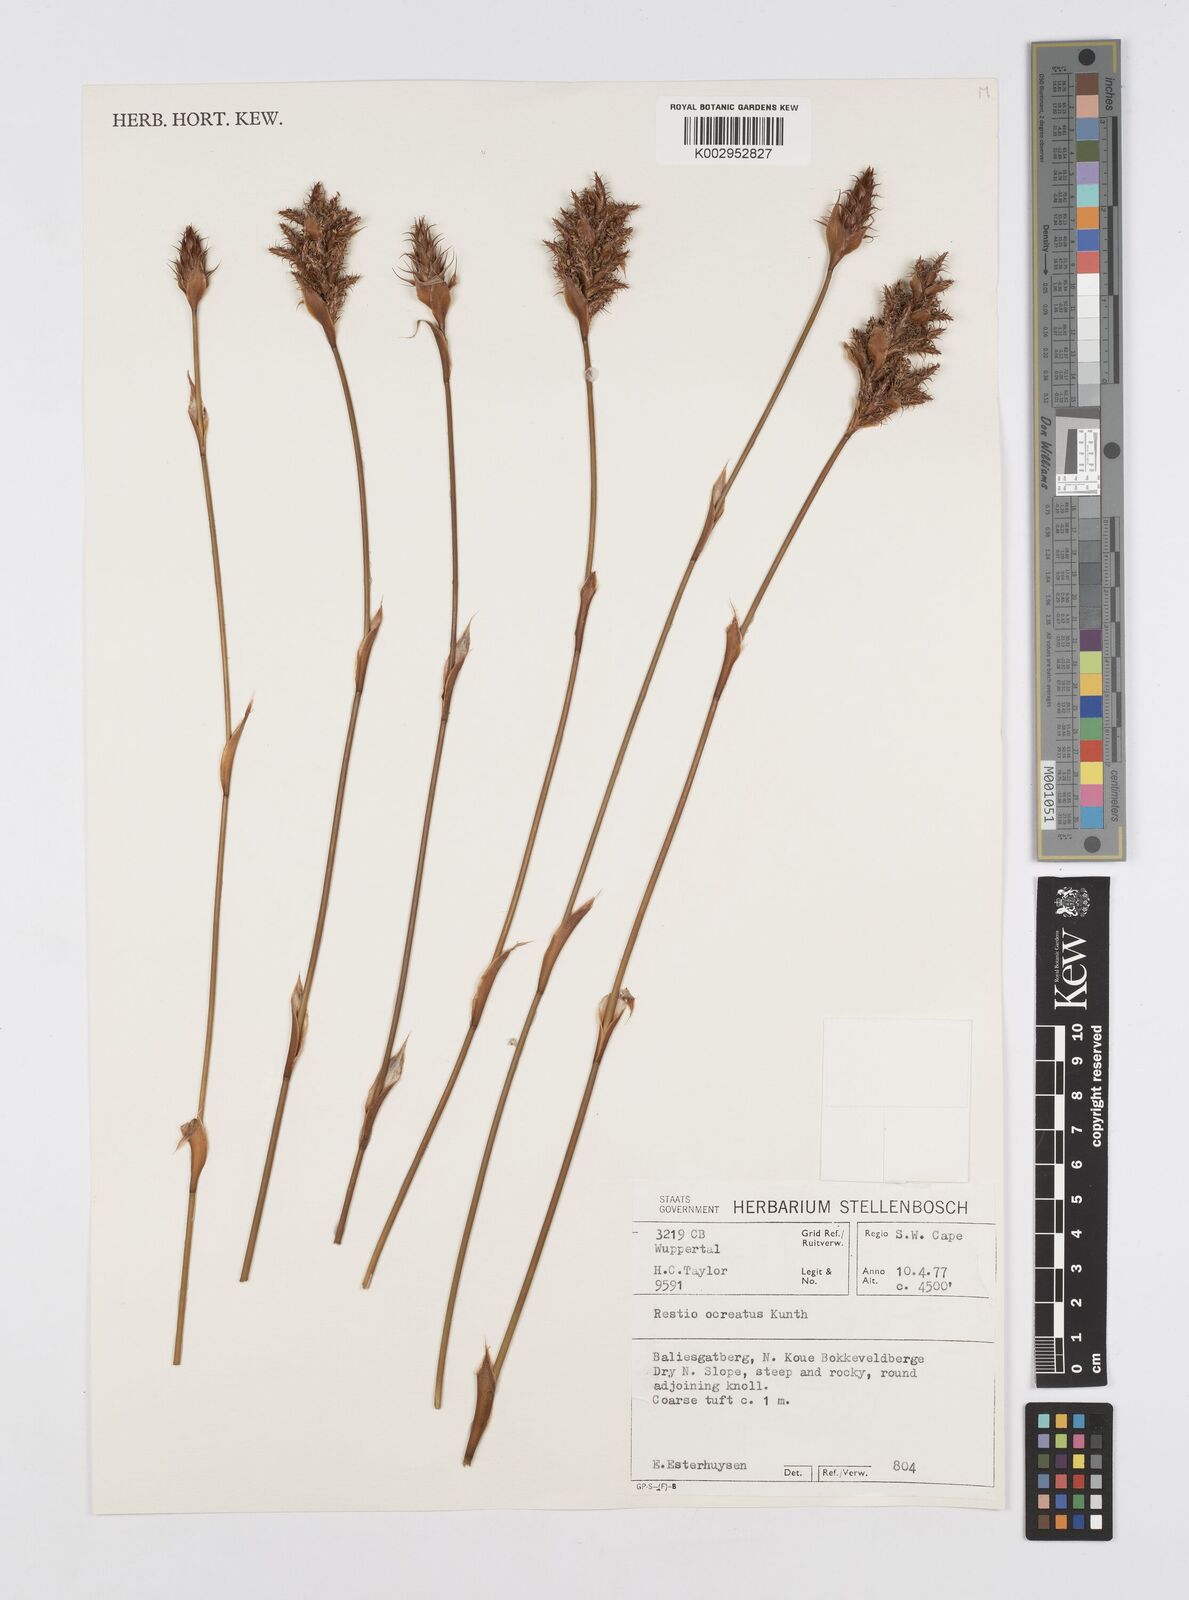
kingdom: Plantae
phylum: Tracheophyta
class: Liliopsida
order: Poales
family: Restionaceae
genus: Restio
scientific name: Restio ocreatus
